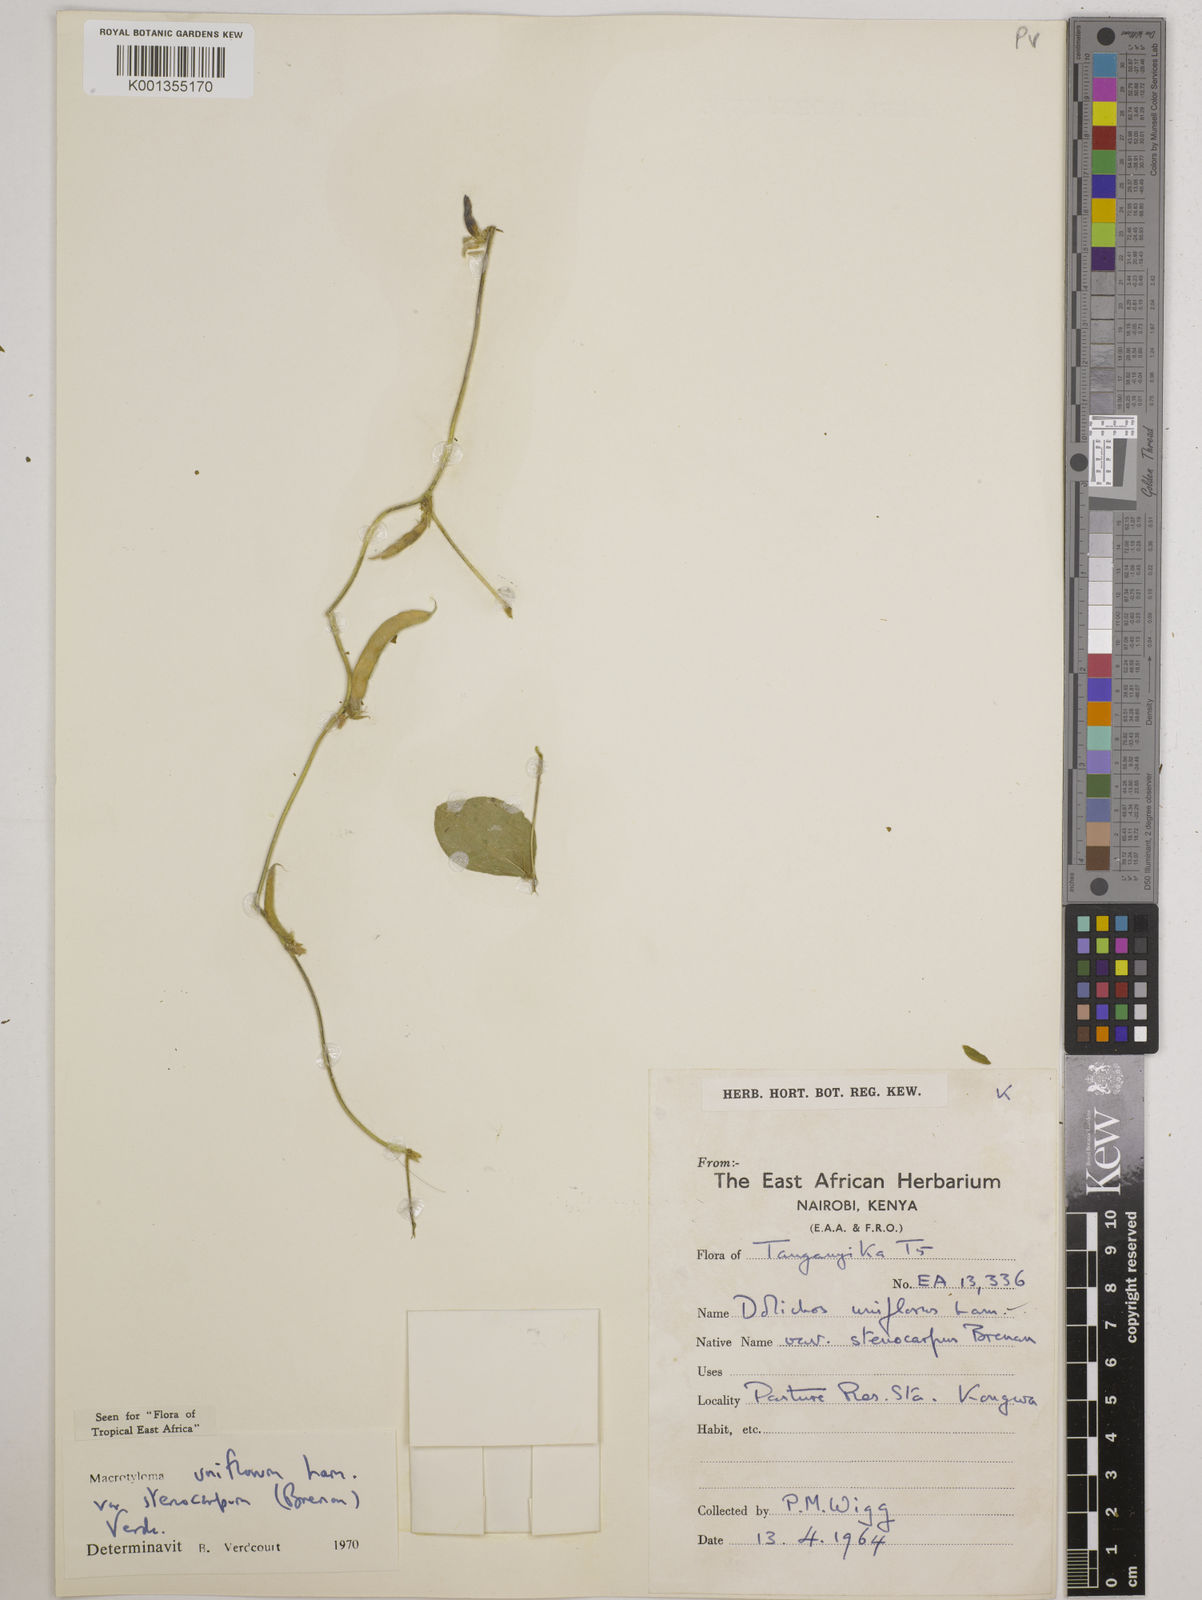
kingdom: Plantae
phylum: Tracheophyta
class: Magnoliopsida
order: Fabales
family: Fabaceae
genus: Macrotyloma
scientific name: Macrotyloma
